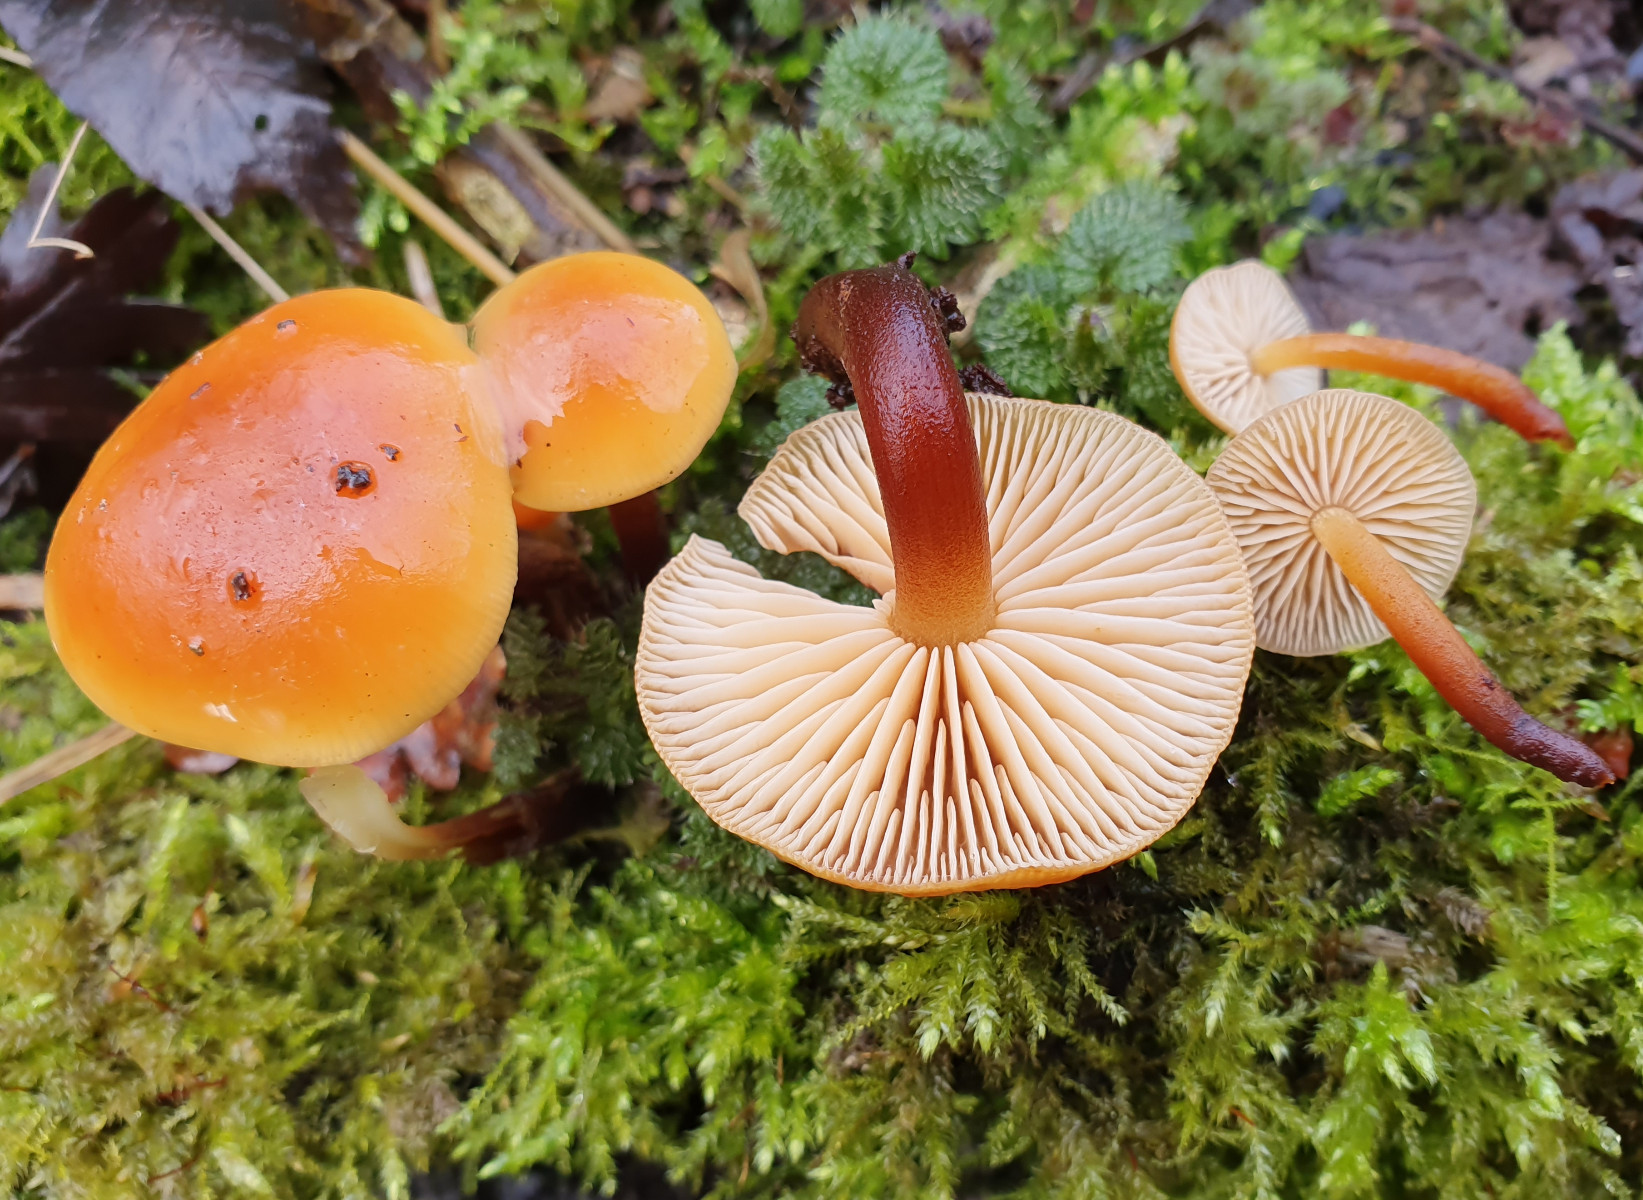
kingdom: Fungi
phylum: Basidiomycota
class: Agaricomycetes
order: Agaricales
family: Physalacriaceae
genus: Flammulina
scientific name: Flammulina velutipes
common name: gul fløjlsfod
